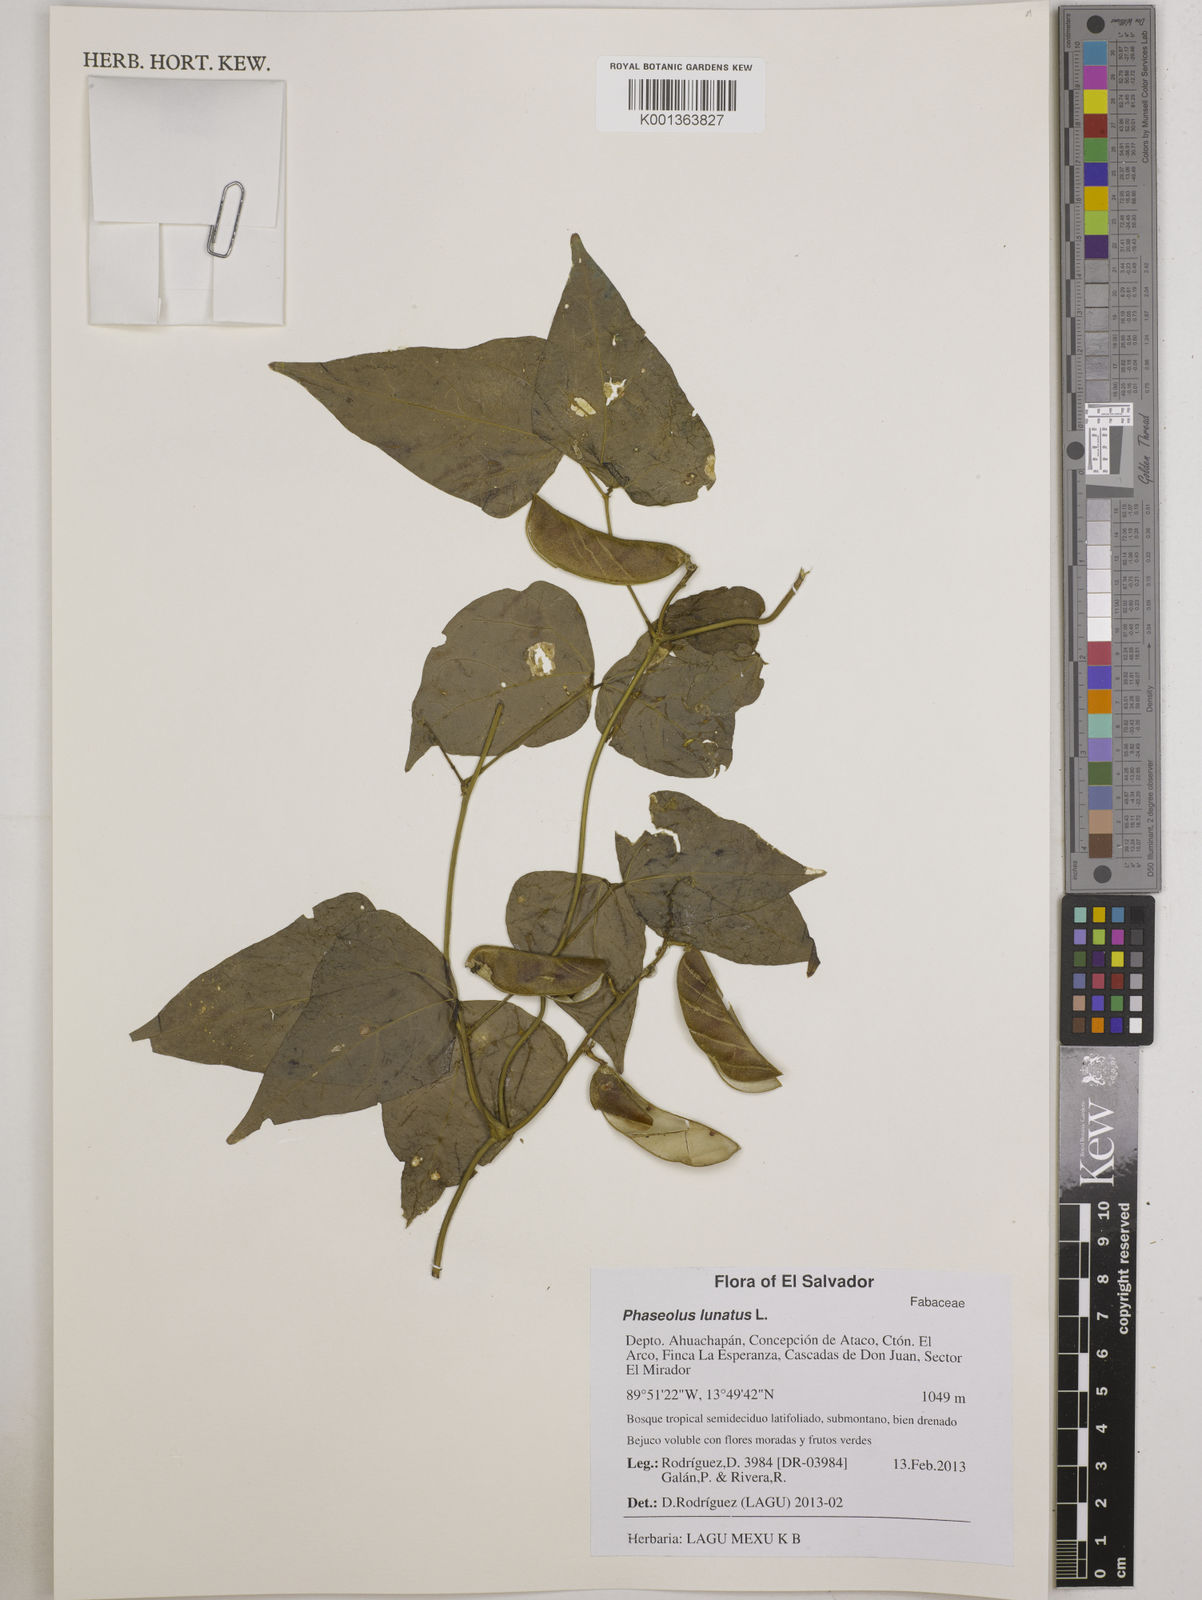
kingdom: Plantae
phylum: Tracheophyta
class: Magnoliopsida
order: Fabales
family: Fabaceae
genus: Phaseolus
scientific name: Phaseolus lunatus
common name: Sieva bean
